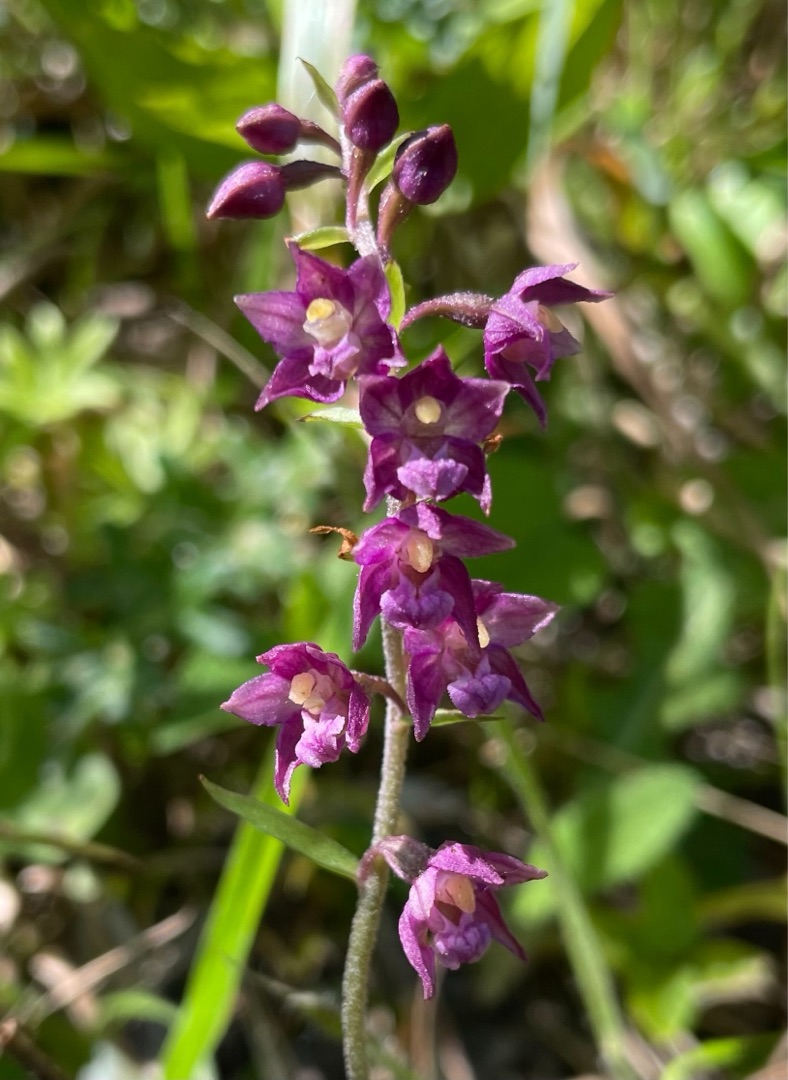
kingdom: Plantae
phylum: Tracheophyta
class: Liliopsida
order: Asparagales
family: Orchidaceae
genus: Epipactis
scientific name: Epipactis atrorubens
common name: Rød hullæbe
